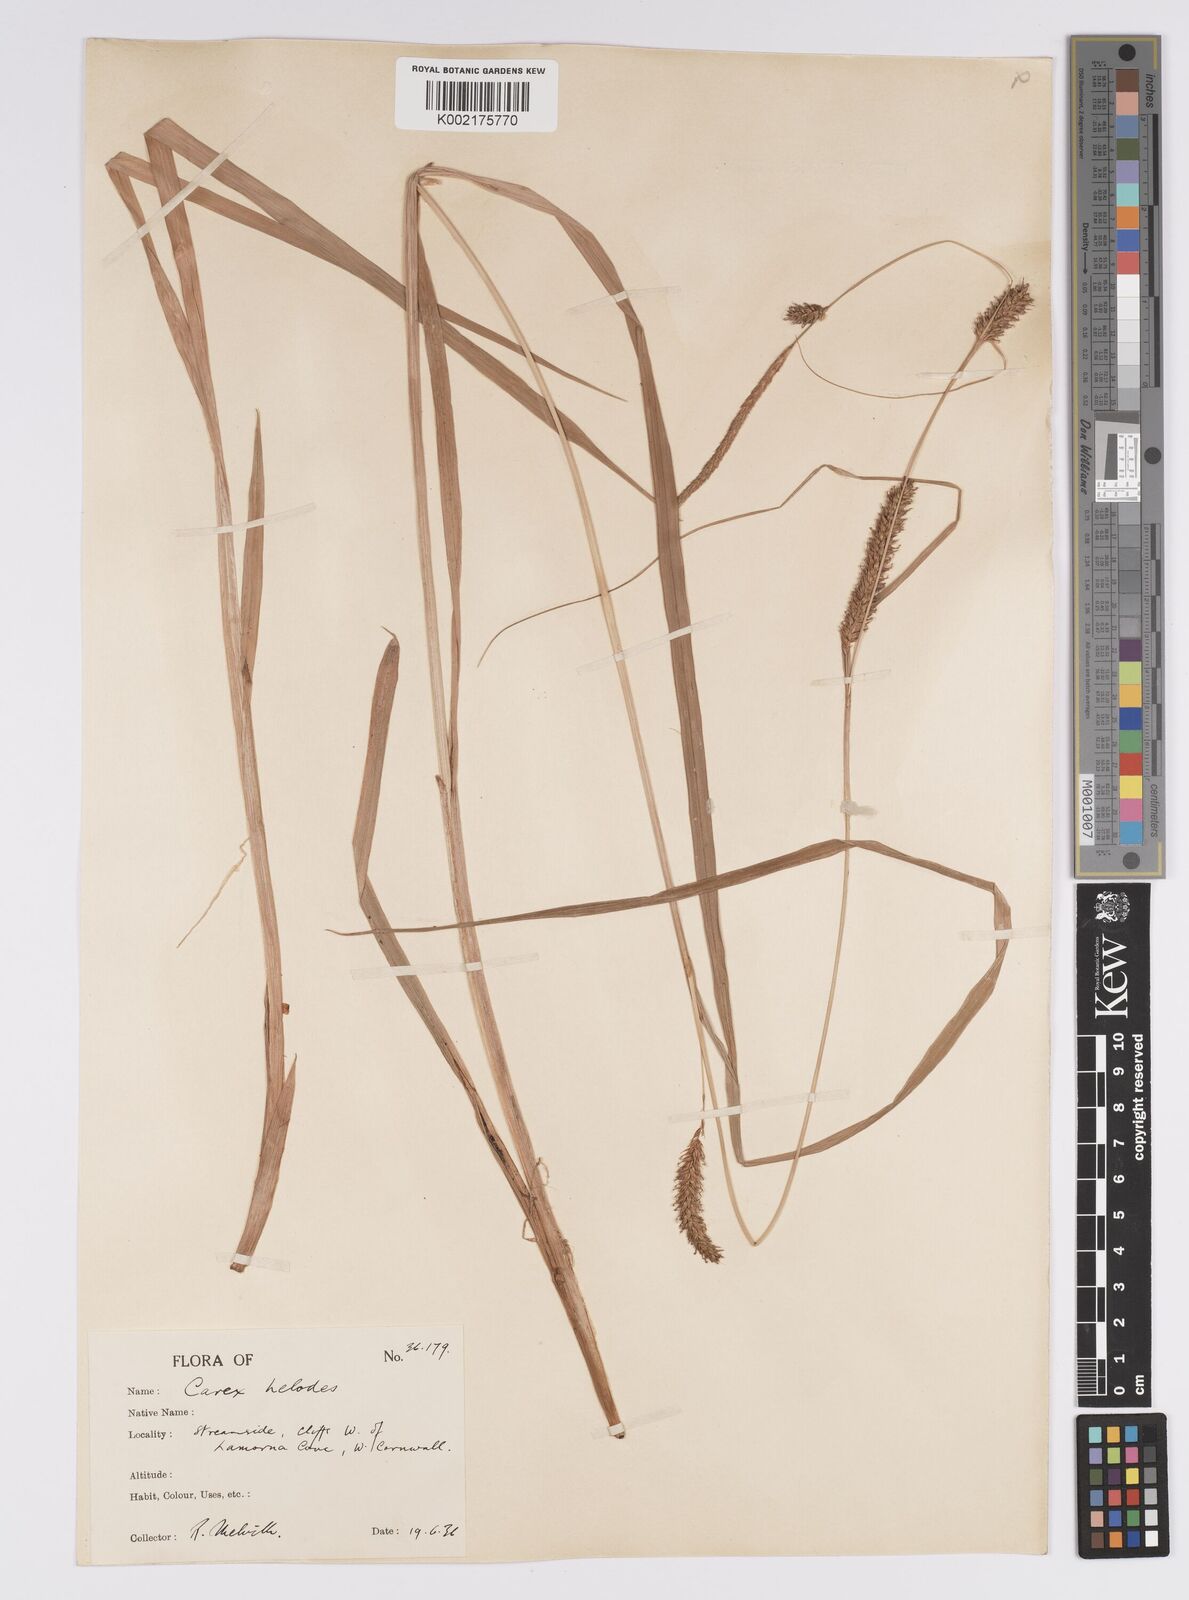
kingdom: Plantae
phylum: Tracheophyta
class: Liliopsida
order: Poales
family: Cyperaceae
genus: Carex
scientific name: Carex laevigata
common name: Smooth-stalked sedge
